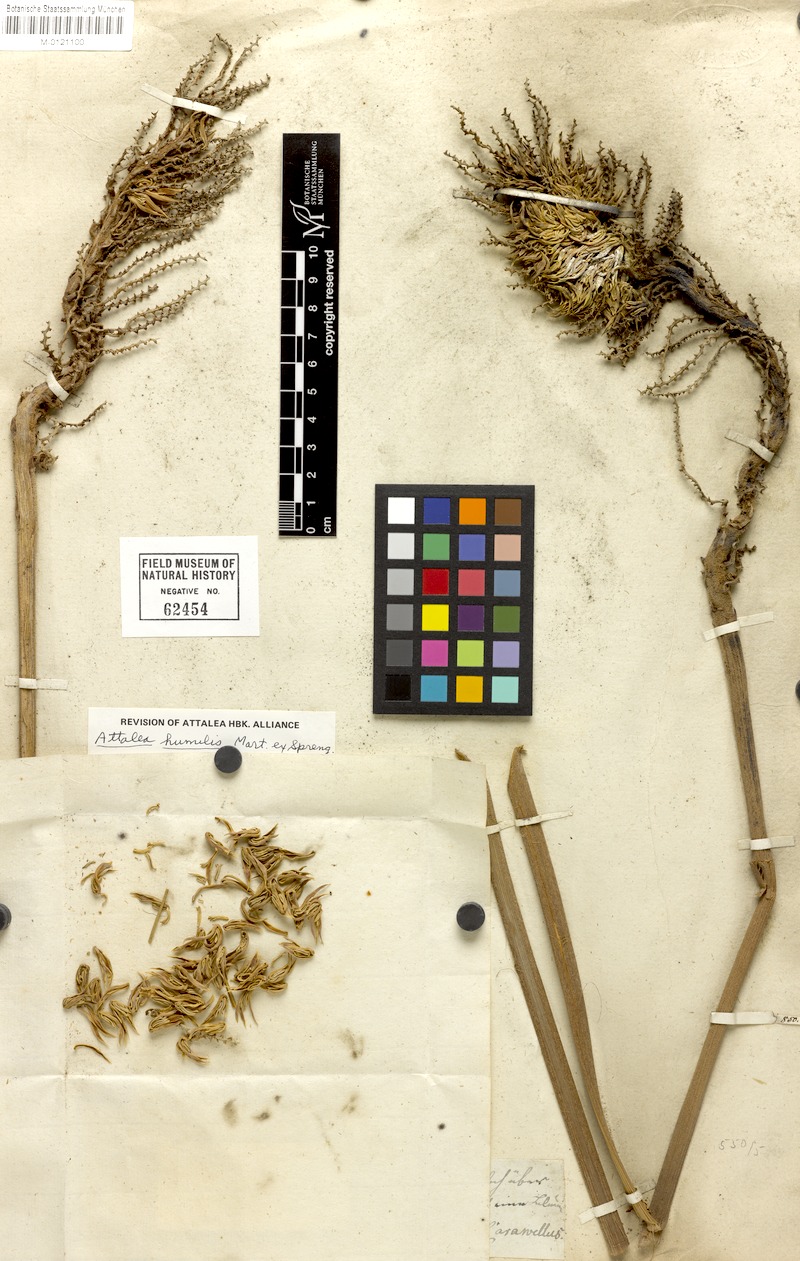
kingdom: Plantae
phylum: Tracheophyta
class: Liliopsida
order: Arecales
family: Arecaceae
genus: Attalea
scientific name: Attalea humilis
